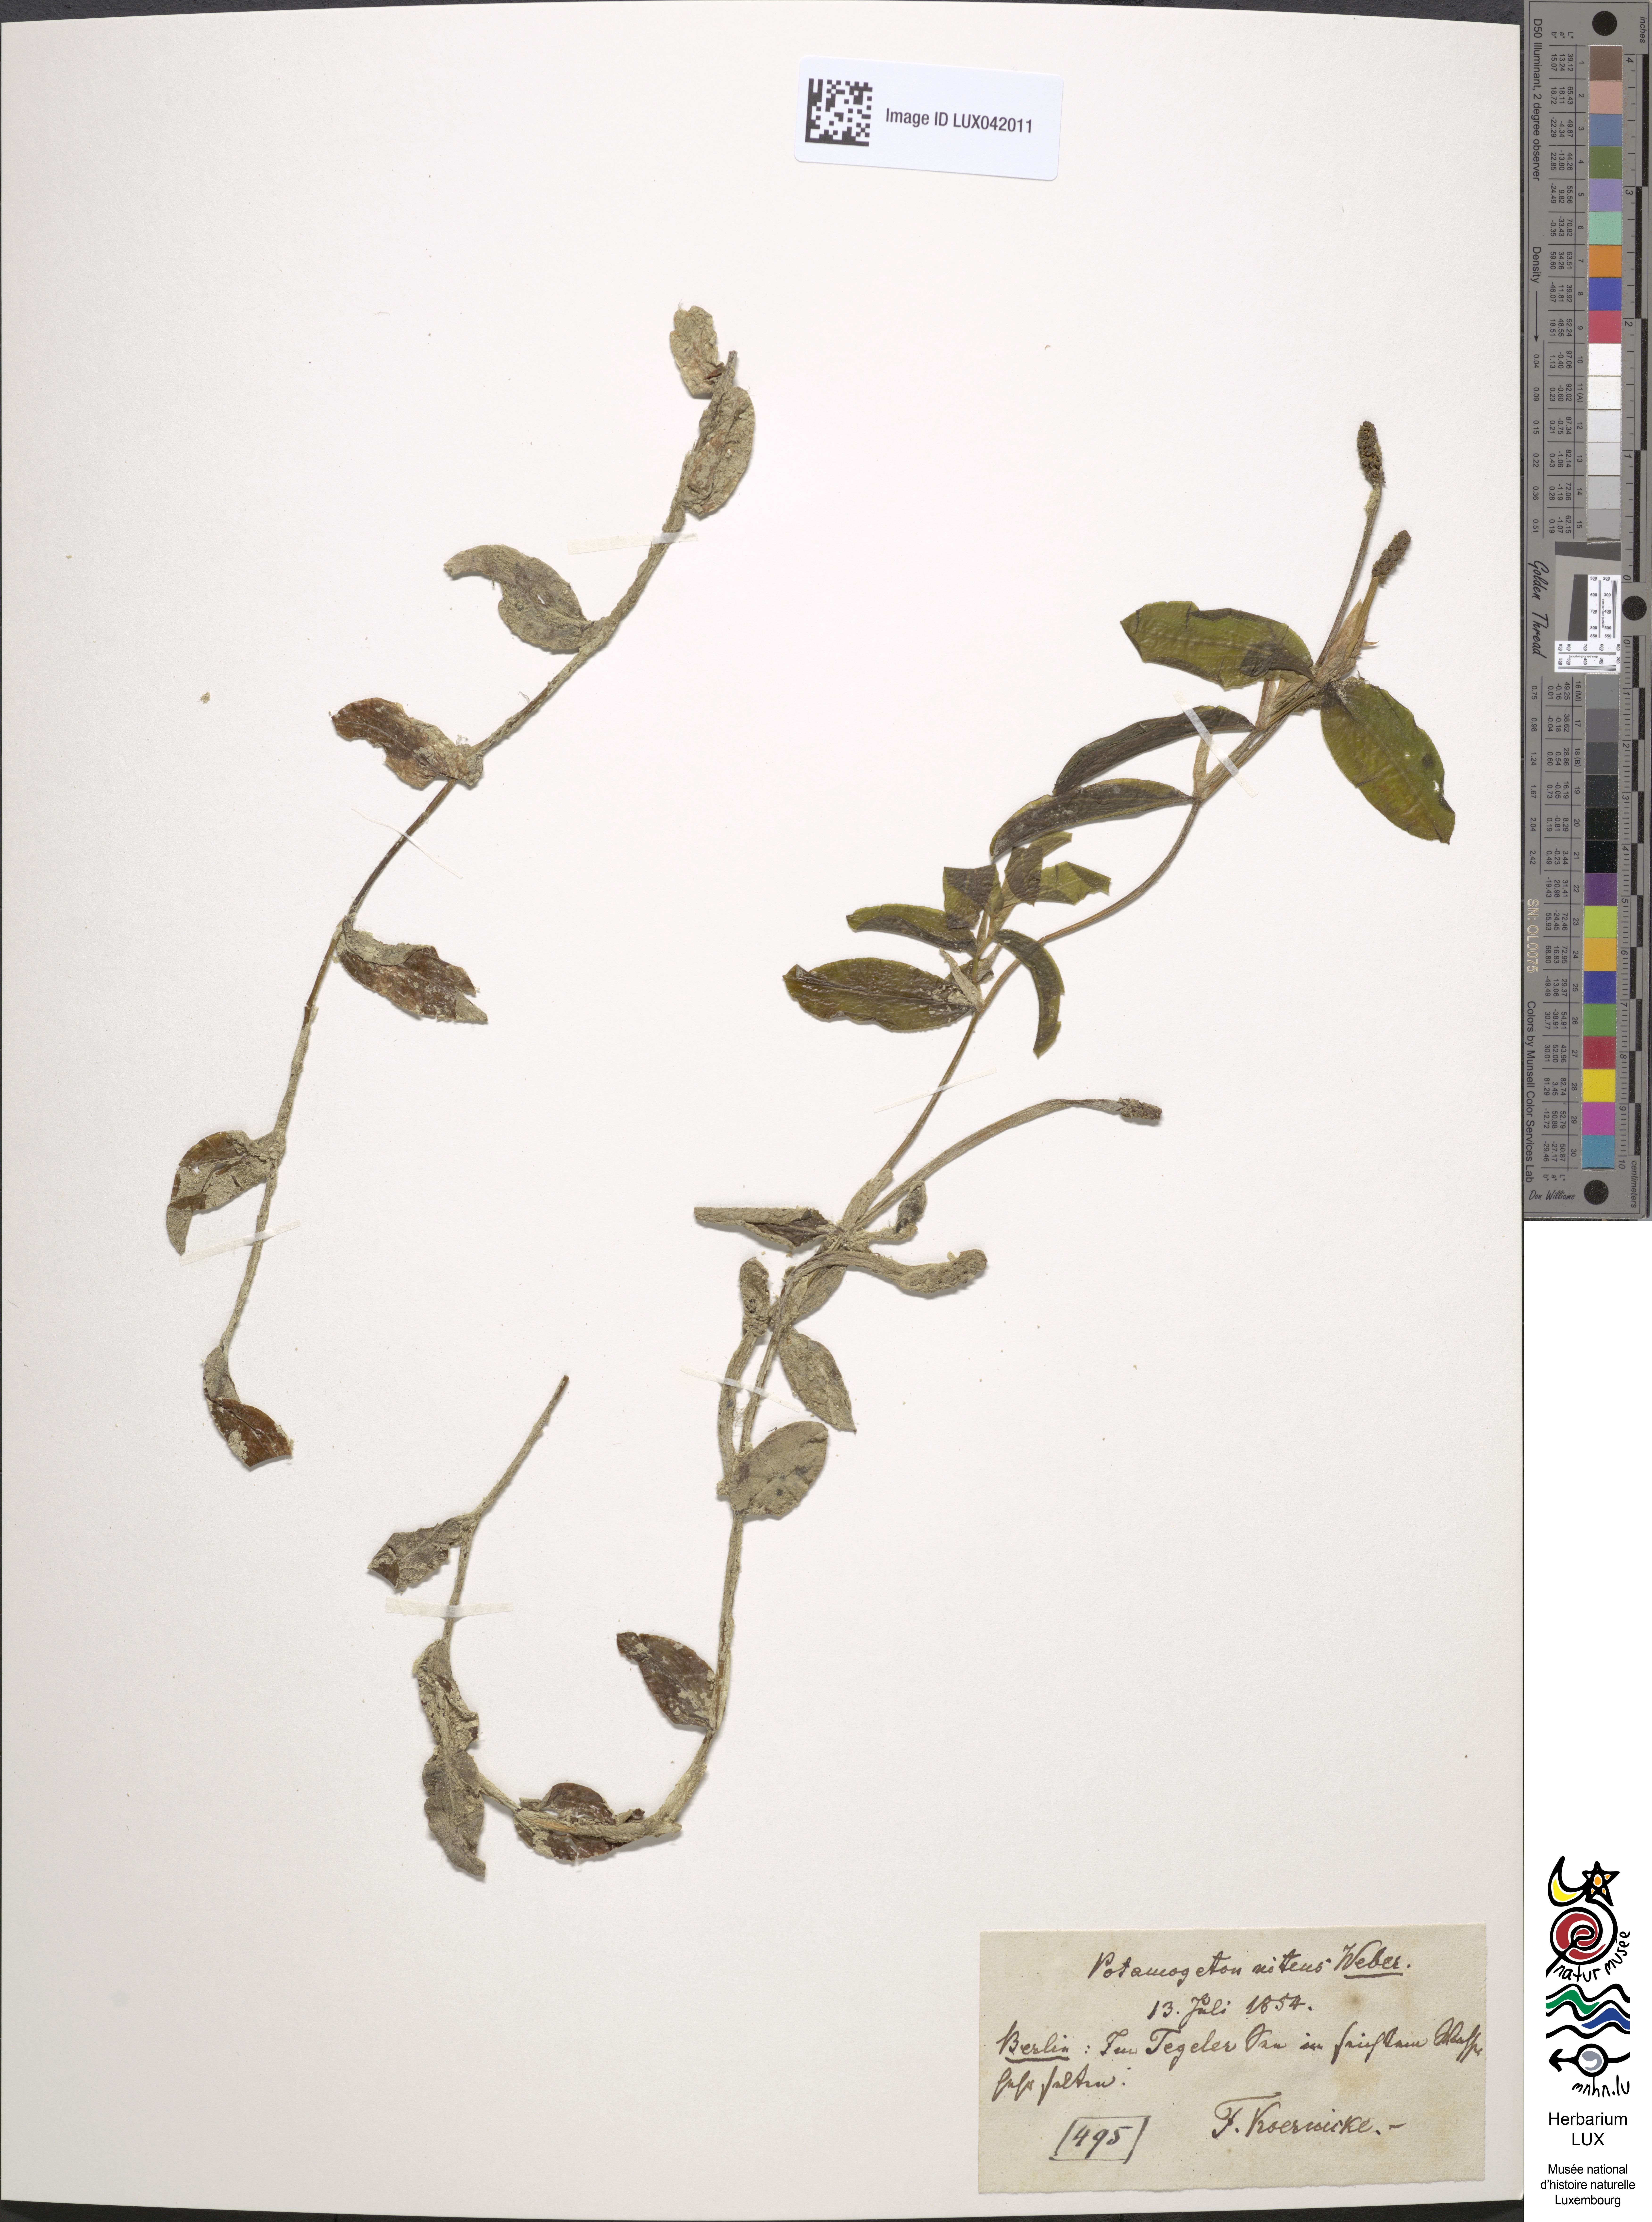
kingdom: Plantae
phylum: Tracheophyta
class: Liliopsida
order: Alismatales
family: Potamogetonaceae
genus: Potamogeton
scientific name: Potamogeton nitens
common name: Pondweed
